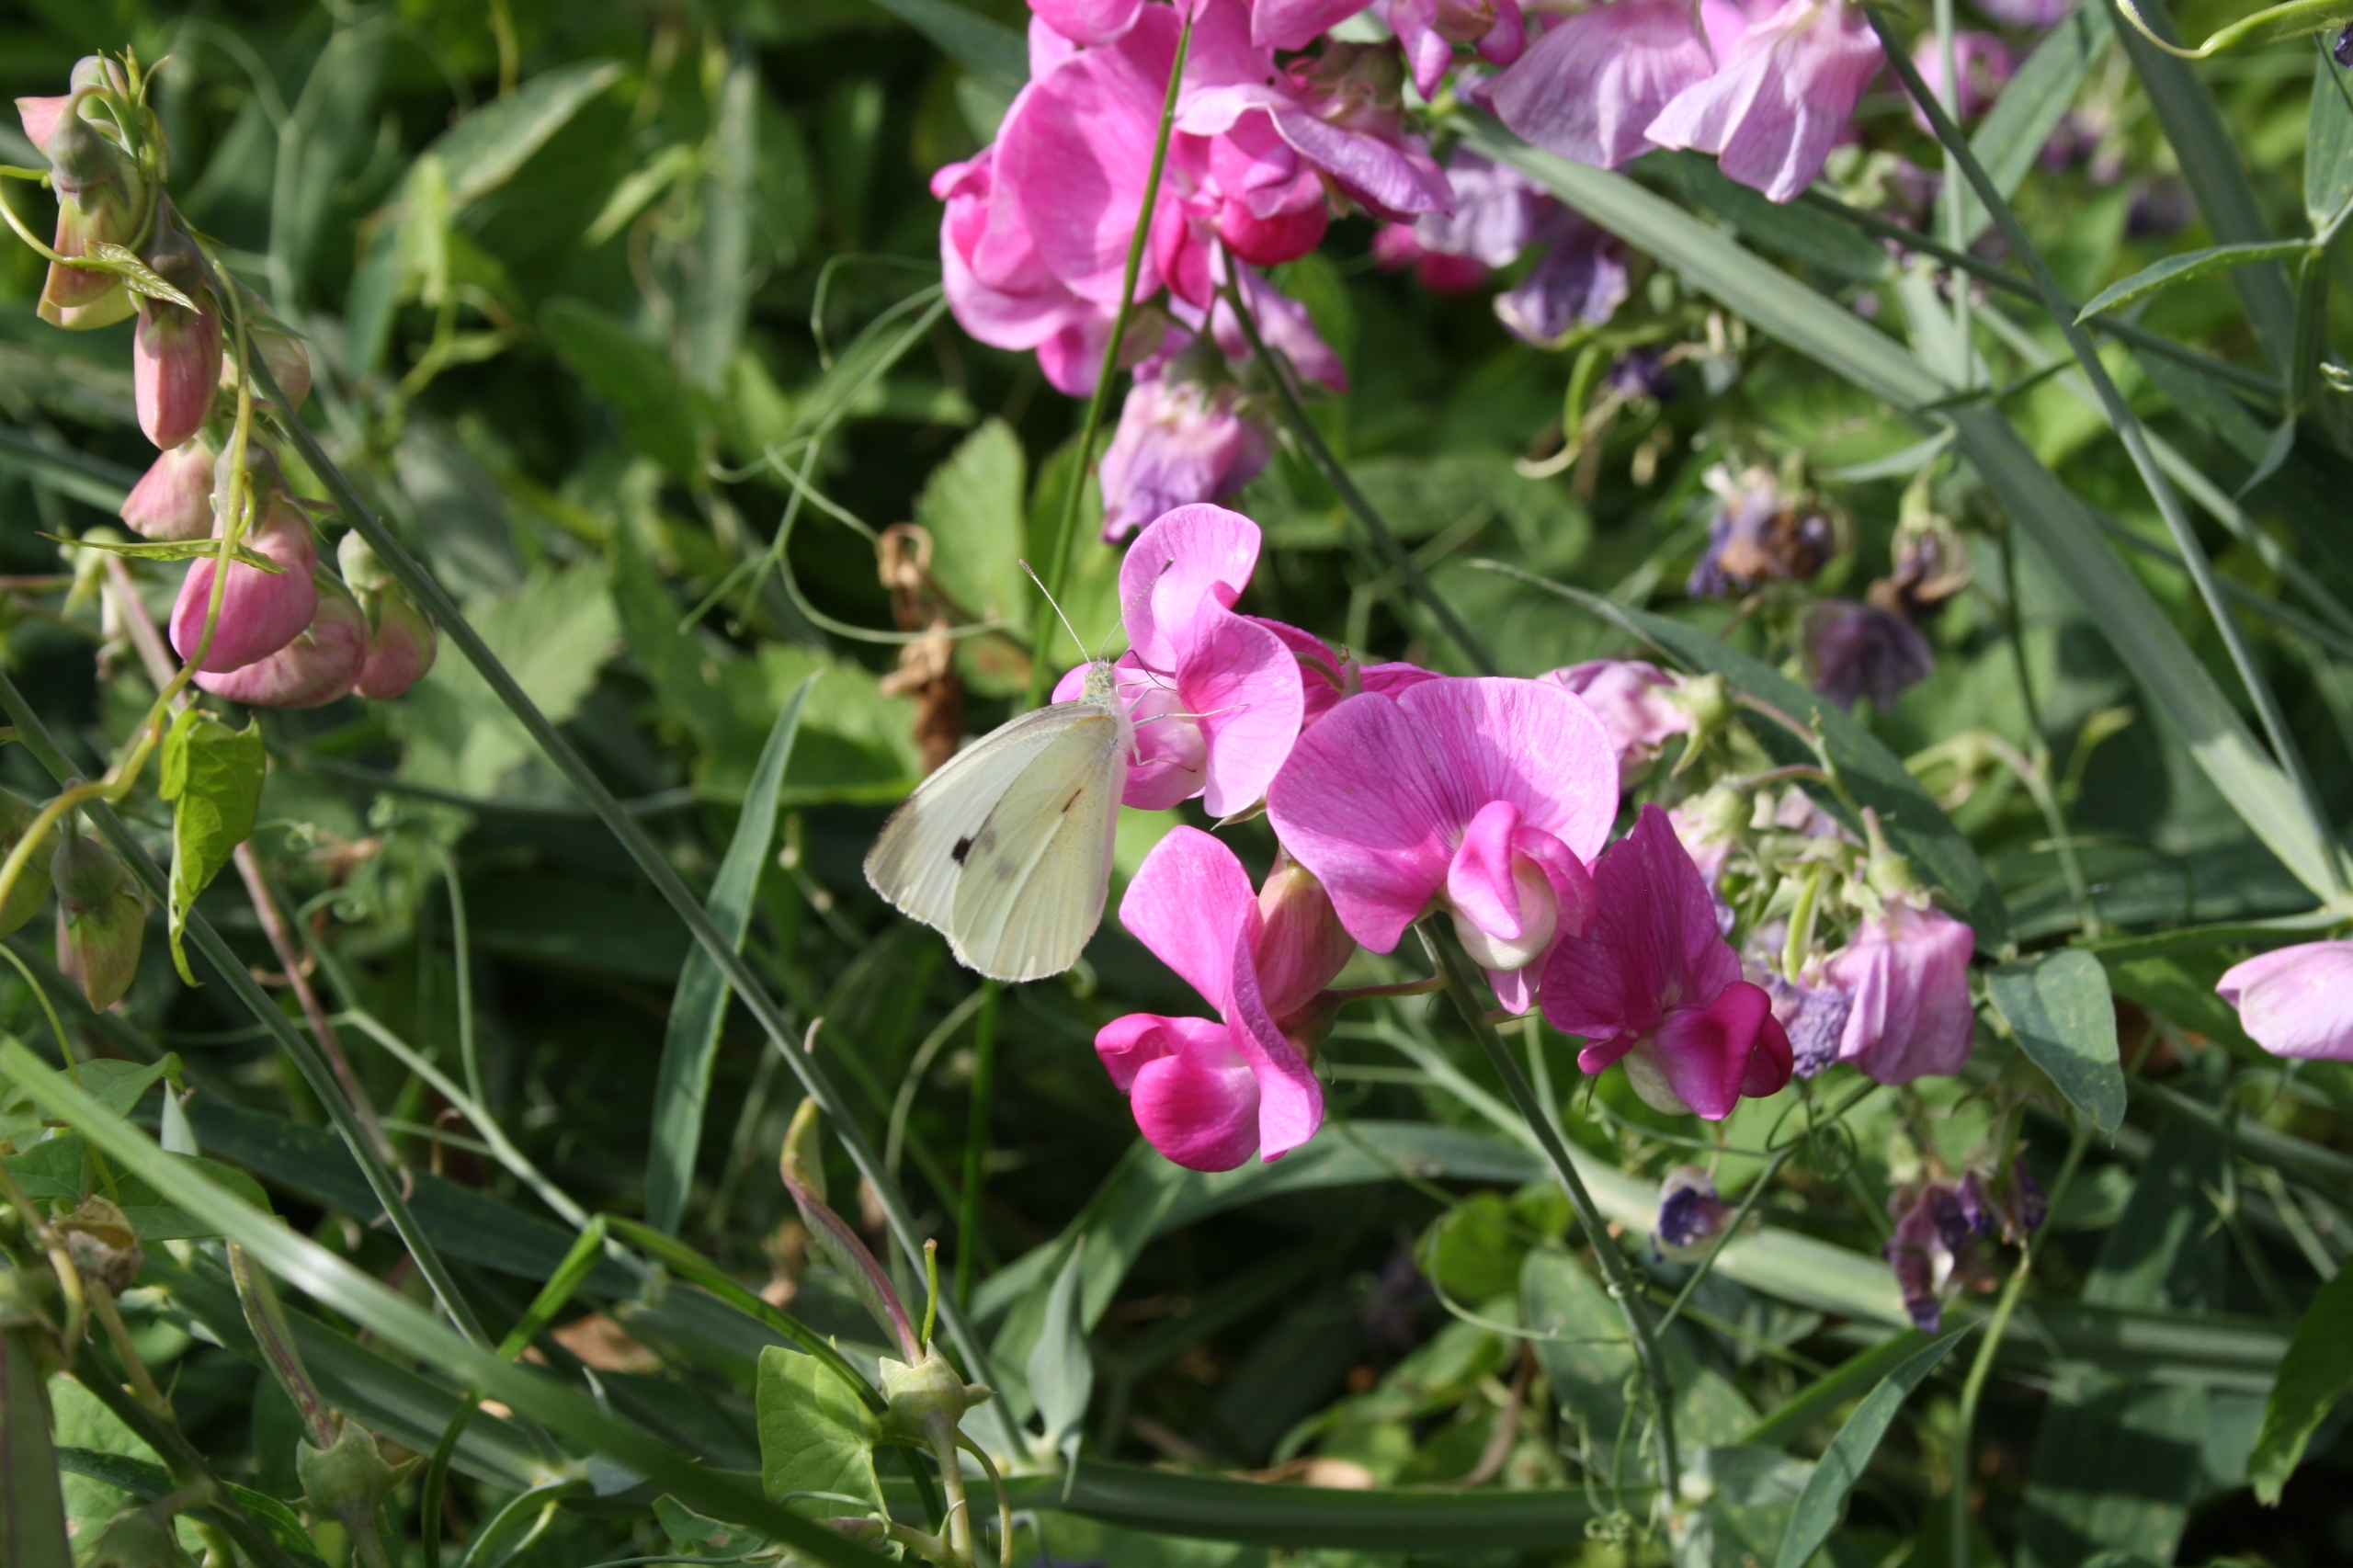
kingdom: Animalia
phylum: Arthropoda
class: Insecta
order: Lepidoptera
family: Pieridae
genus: Pieris
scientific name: Pieris rapae
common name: Lille kålsommerfugl
